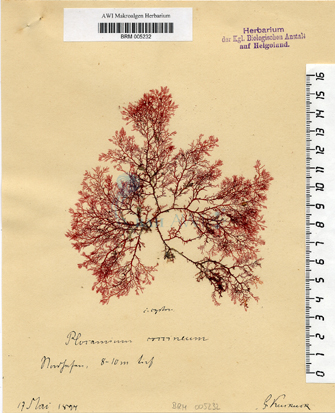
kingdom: Plantae
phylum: Rhodophyta
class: Florideophyceae
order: Plocamiales
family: Plocamiaceae
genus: Plocamium
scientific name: Plocamium cartilagineum
